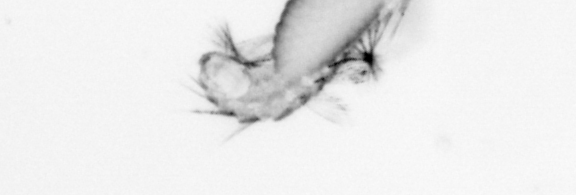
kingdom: Animalia
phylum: Annelida
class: Polychaeta
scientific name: Polychaeta
